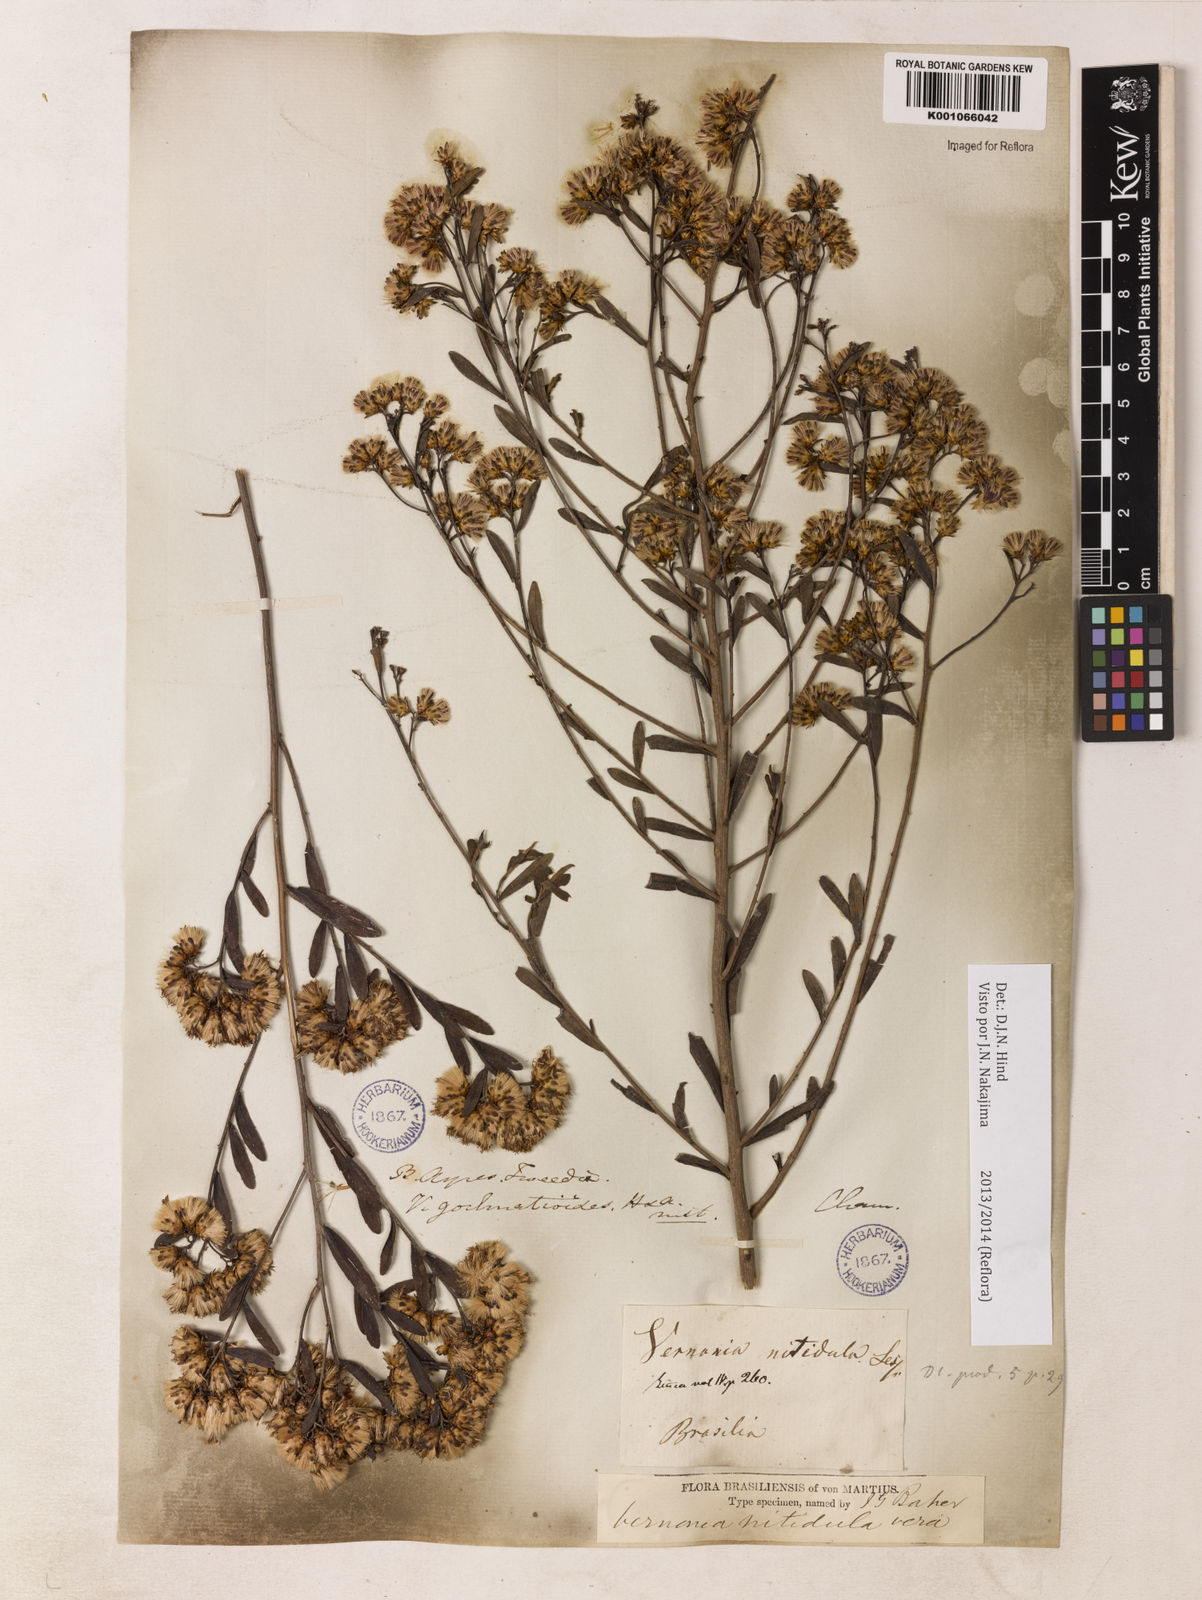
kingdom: Plantae
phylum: Tracheophyta
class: Magnoliopsida
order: Asterales
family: Asteraceae
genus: Vernonanthura
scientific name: Vernonanthura montevidensis
